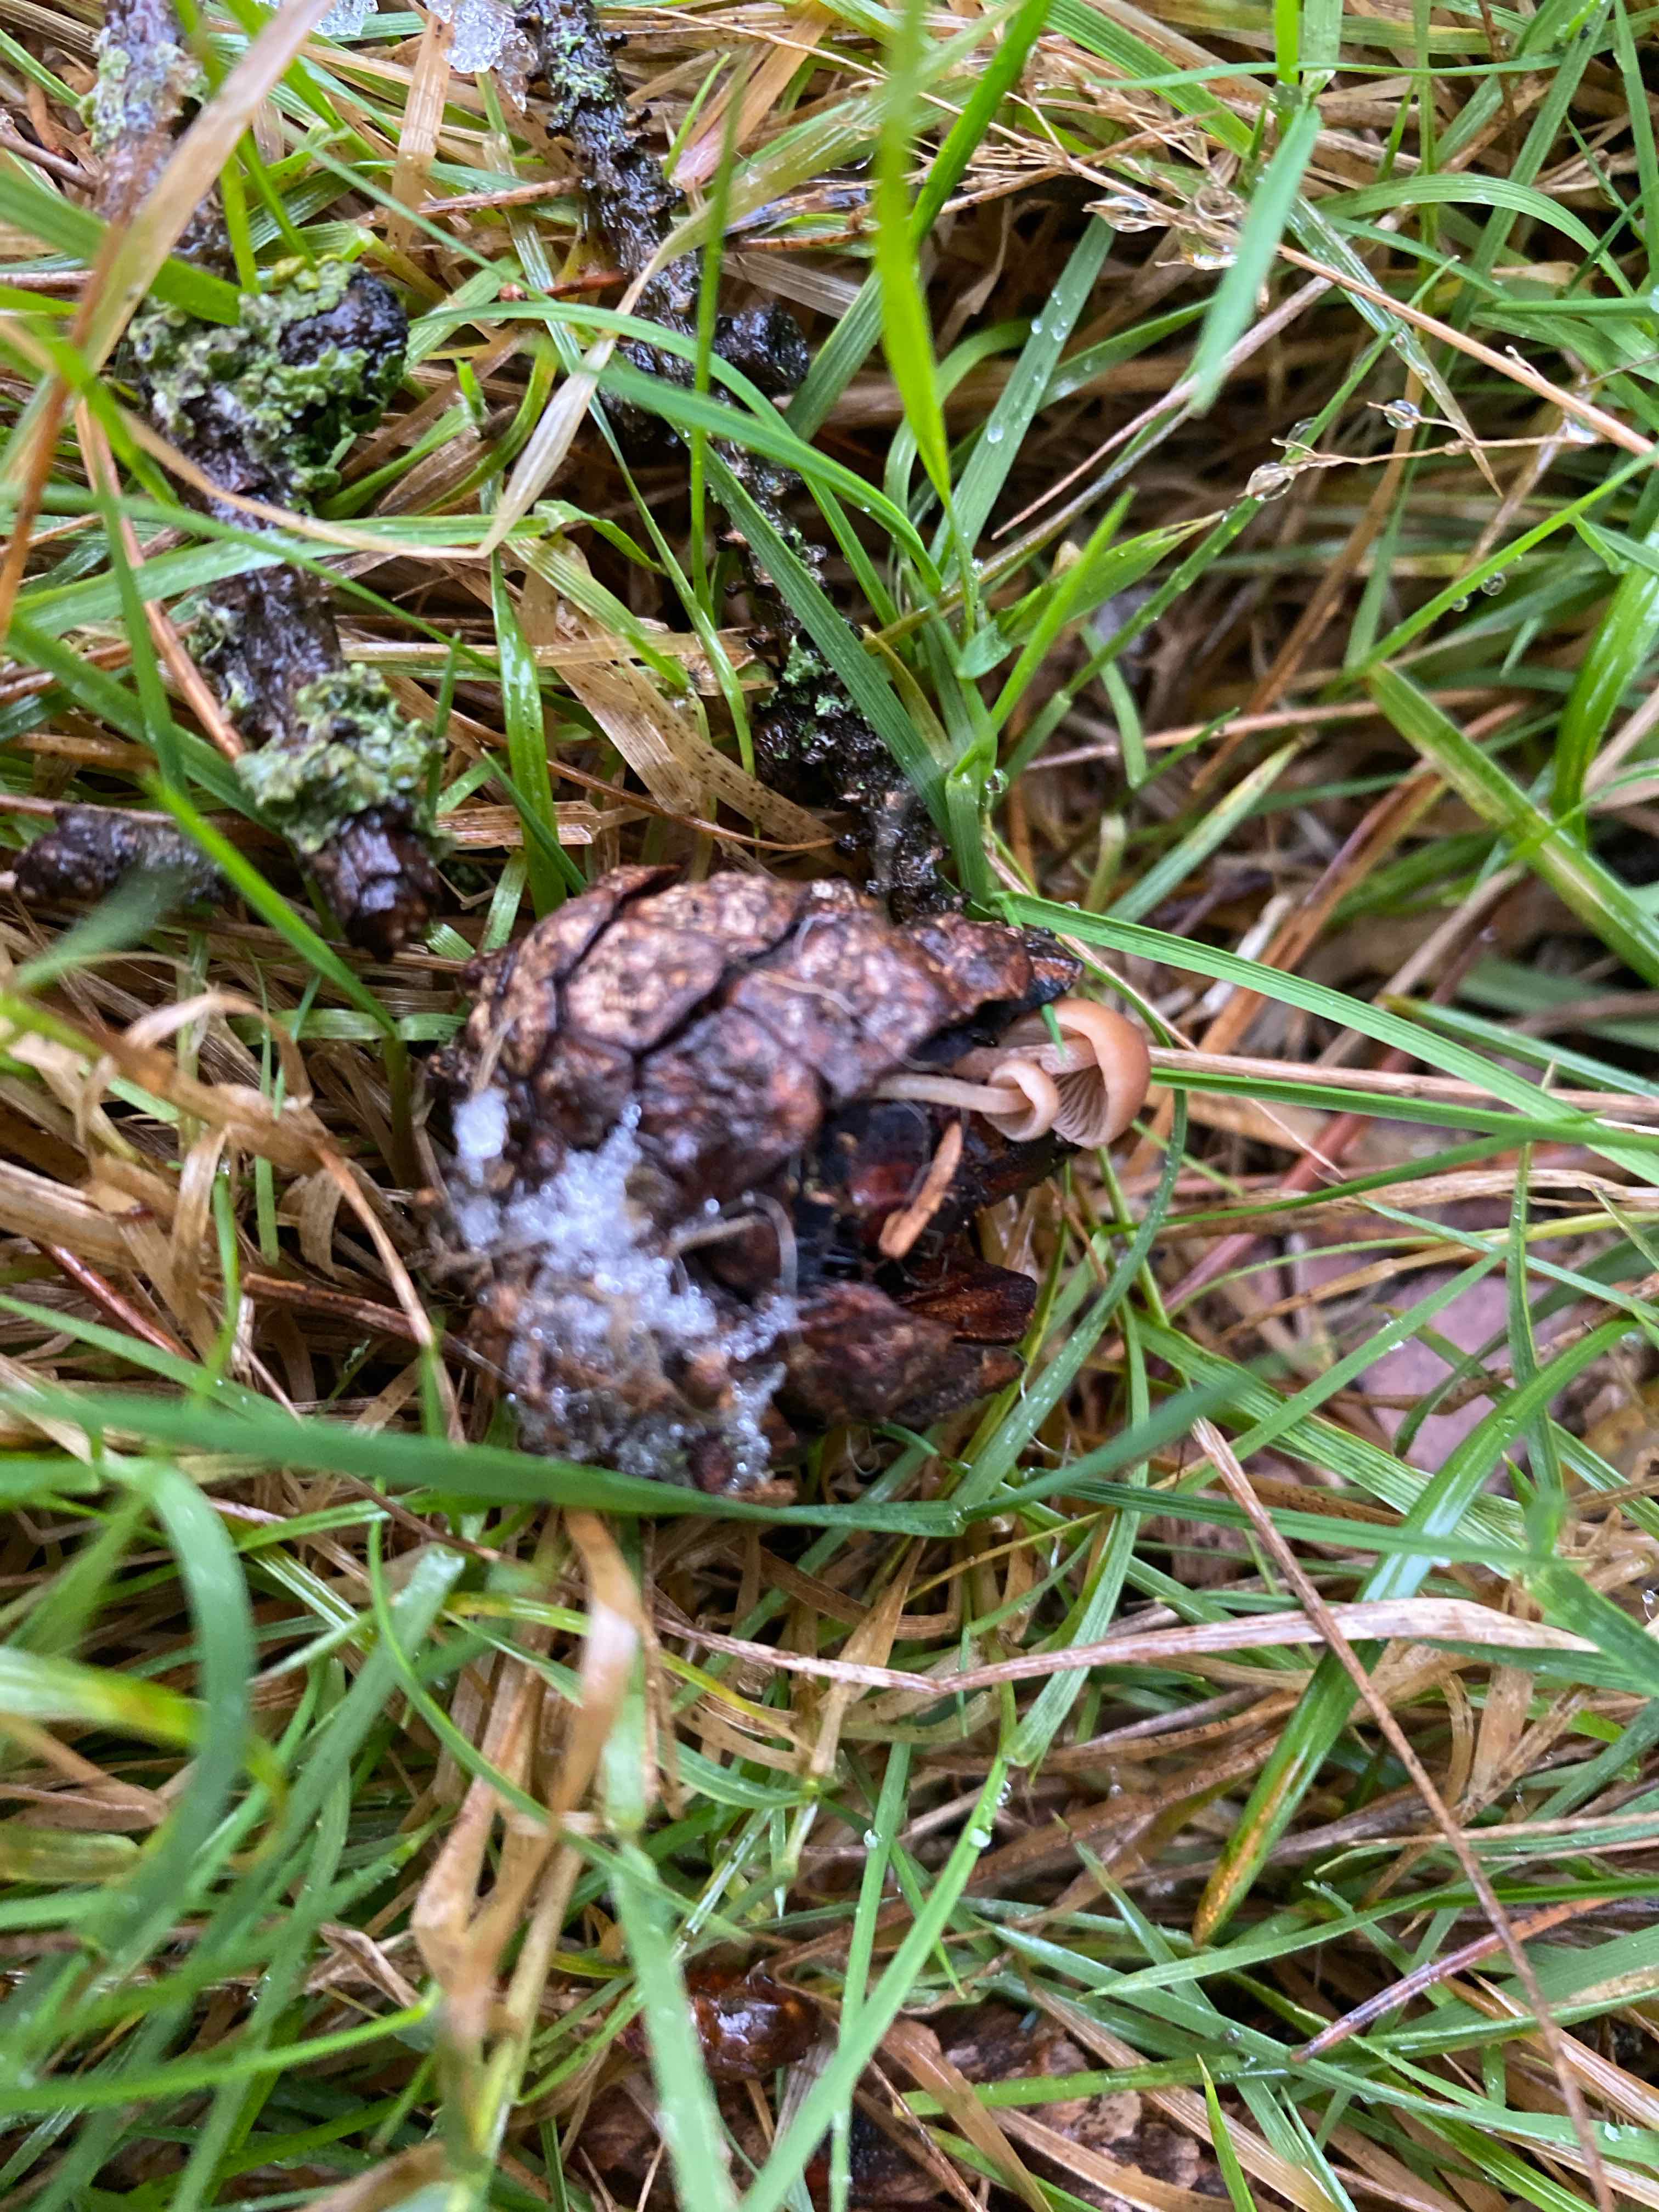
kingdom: Fungi
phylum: Basidiomycota
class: Agaricomycetes
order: Agaricales
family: Marasmiaceae
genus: Baeospora
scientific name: Baeospora myosura
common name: koglebruskhat
